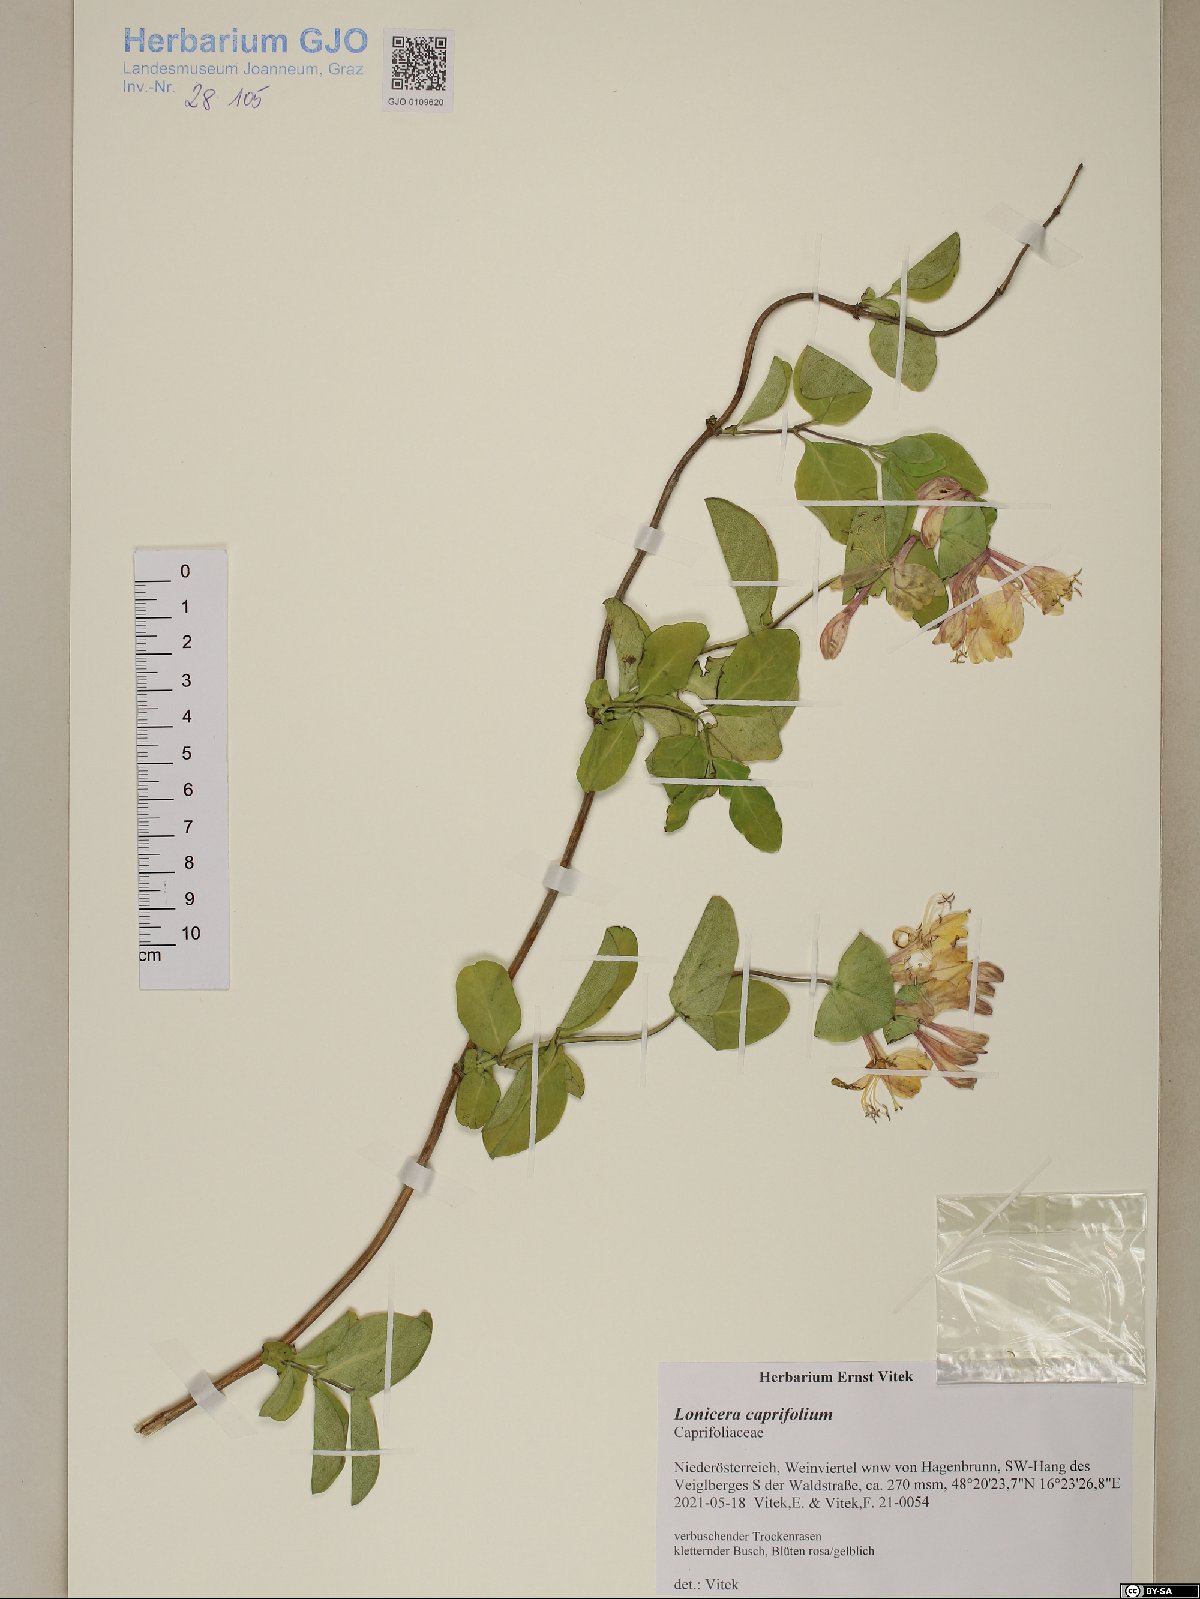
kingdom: Plantae
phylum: Tracheophyta
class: Magnoliopsida
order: Dipsacales
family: Caprifoliaceae
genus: Lonicera
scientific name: Lonicera caprifolium
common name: Perfoliate honeysuckle
